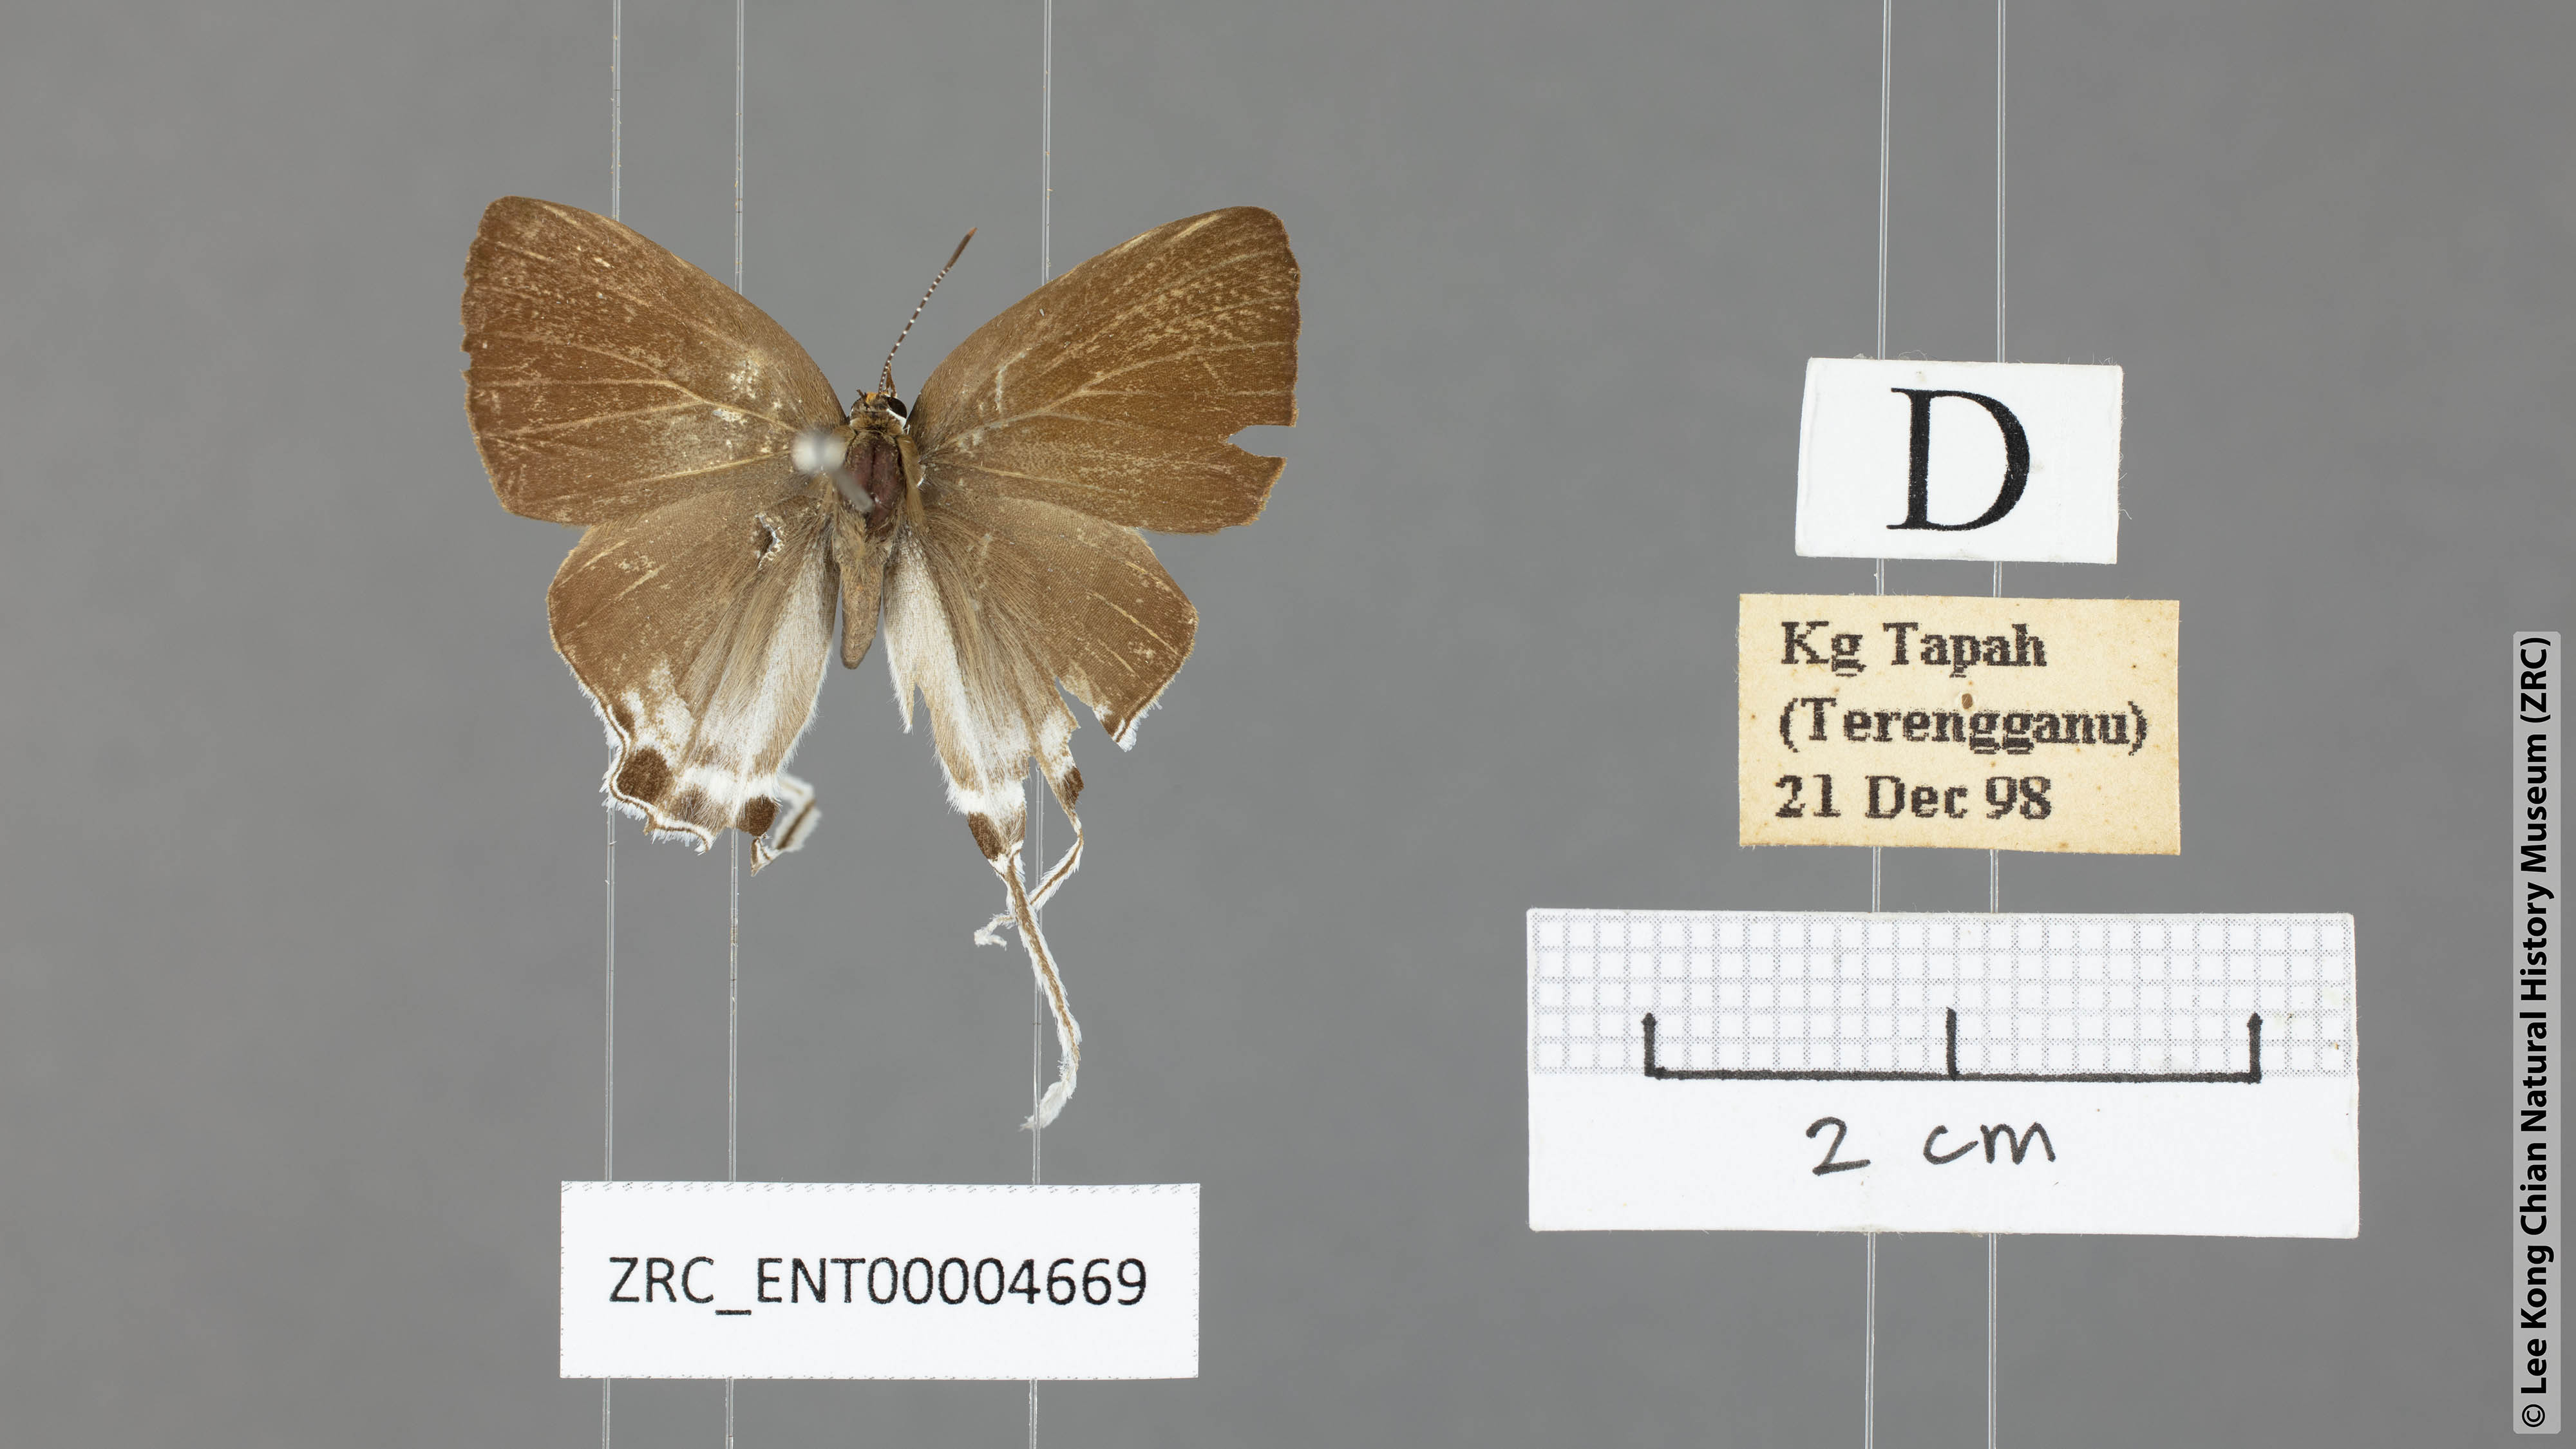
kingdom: Animalia
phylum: Arthropoda
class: Insecta
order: Lepidoptera
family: Lycaenidae
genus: Zeltus
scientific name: Zeltus amasa
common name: Fluffy tit
